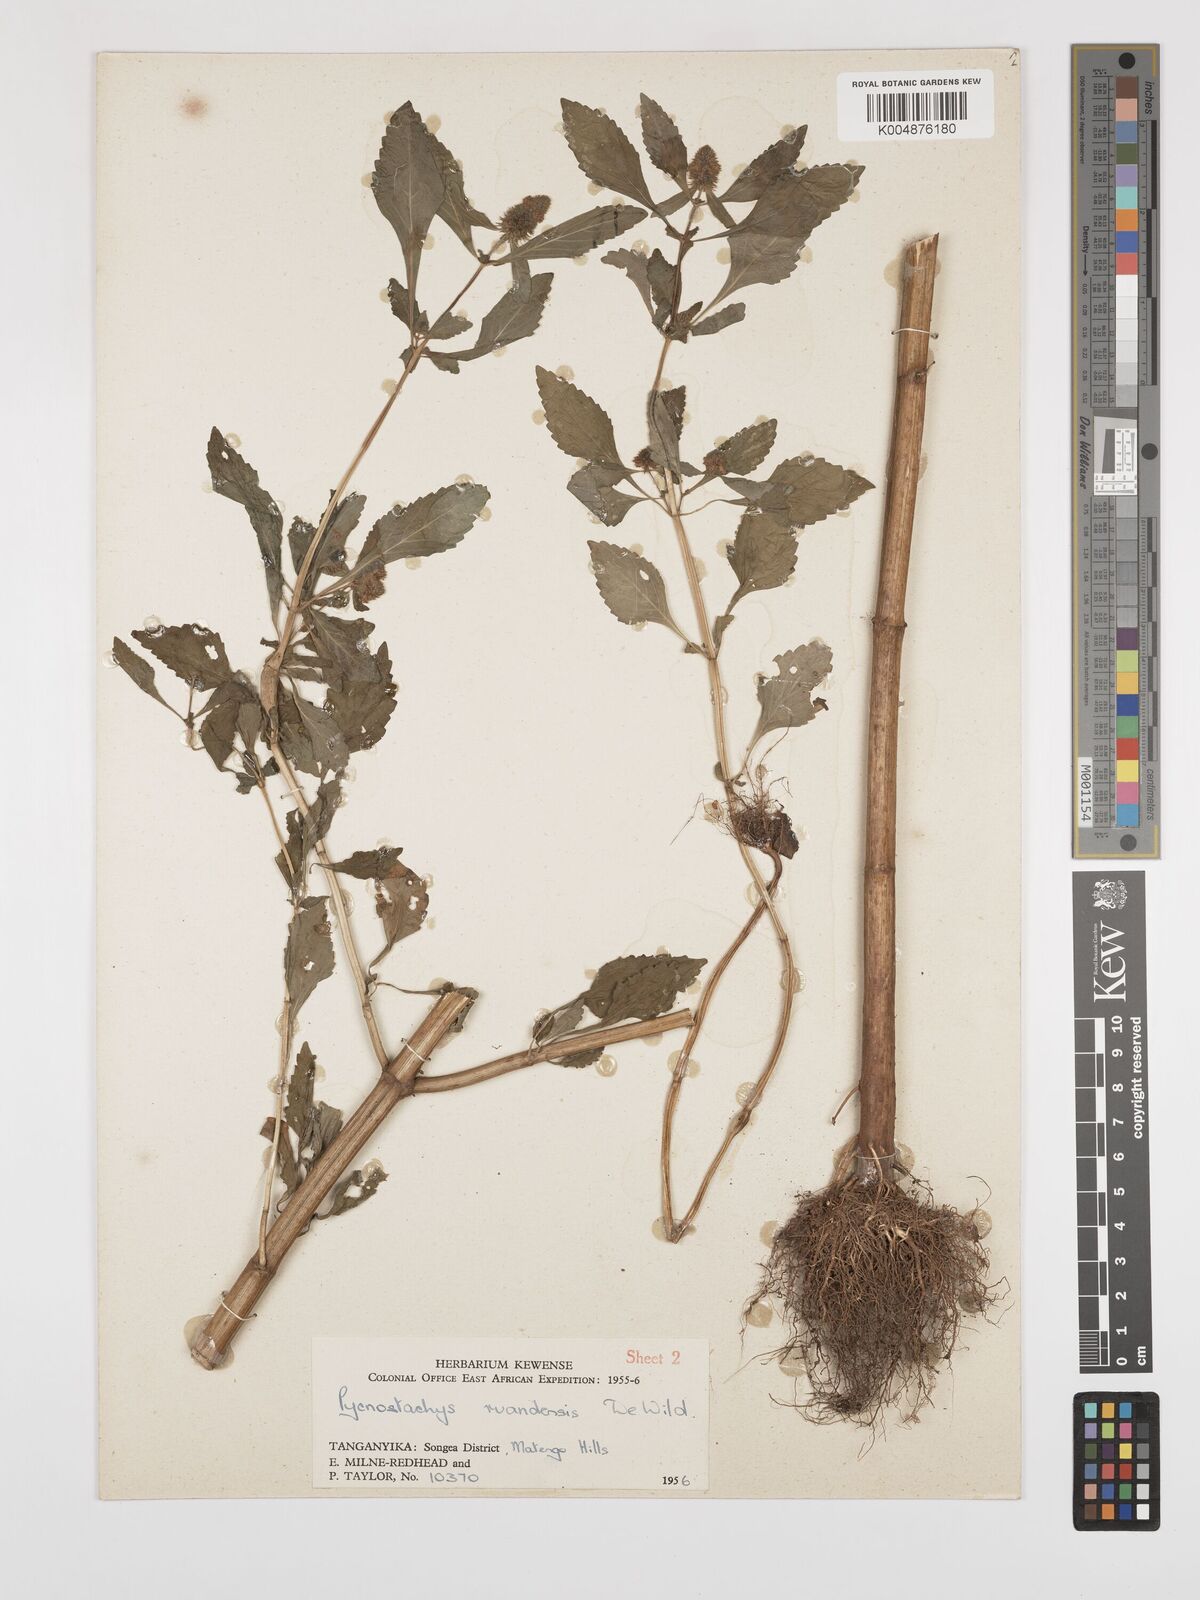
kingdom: Plantae
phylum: Tracheophyta
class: Magnoliopsida
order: Lamiales
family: Lamiaceae
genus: Coleus
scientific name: Coleus ruandensis
